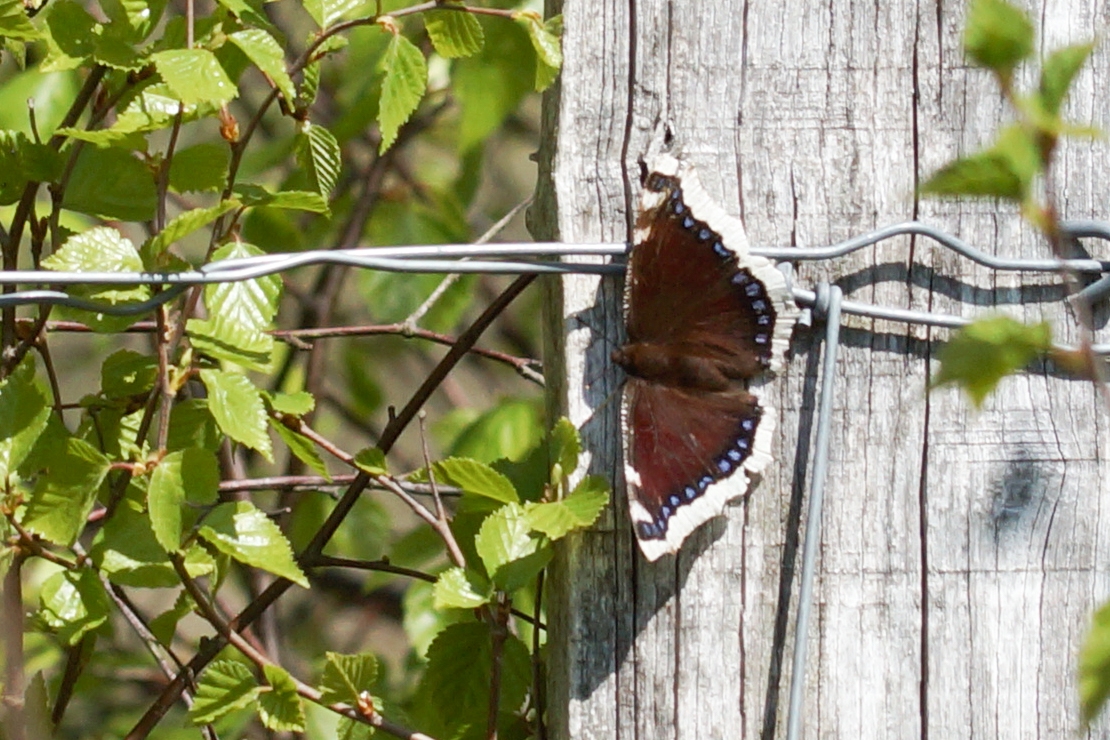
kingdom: Animalia
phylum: Arthropoda
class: Insecta
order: Lepidoptera
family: Nymphalidae
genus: Nymphalis
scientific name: Nymphalis antiopa
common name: Sørgekåbe
